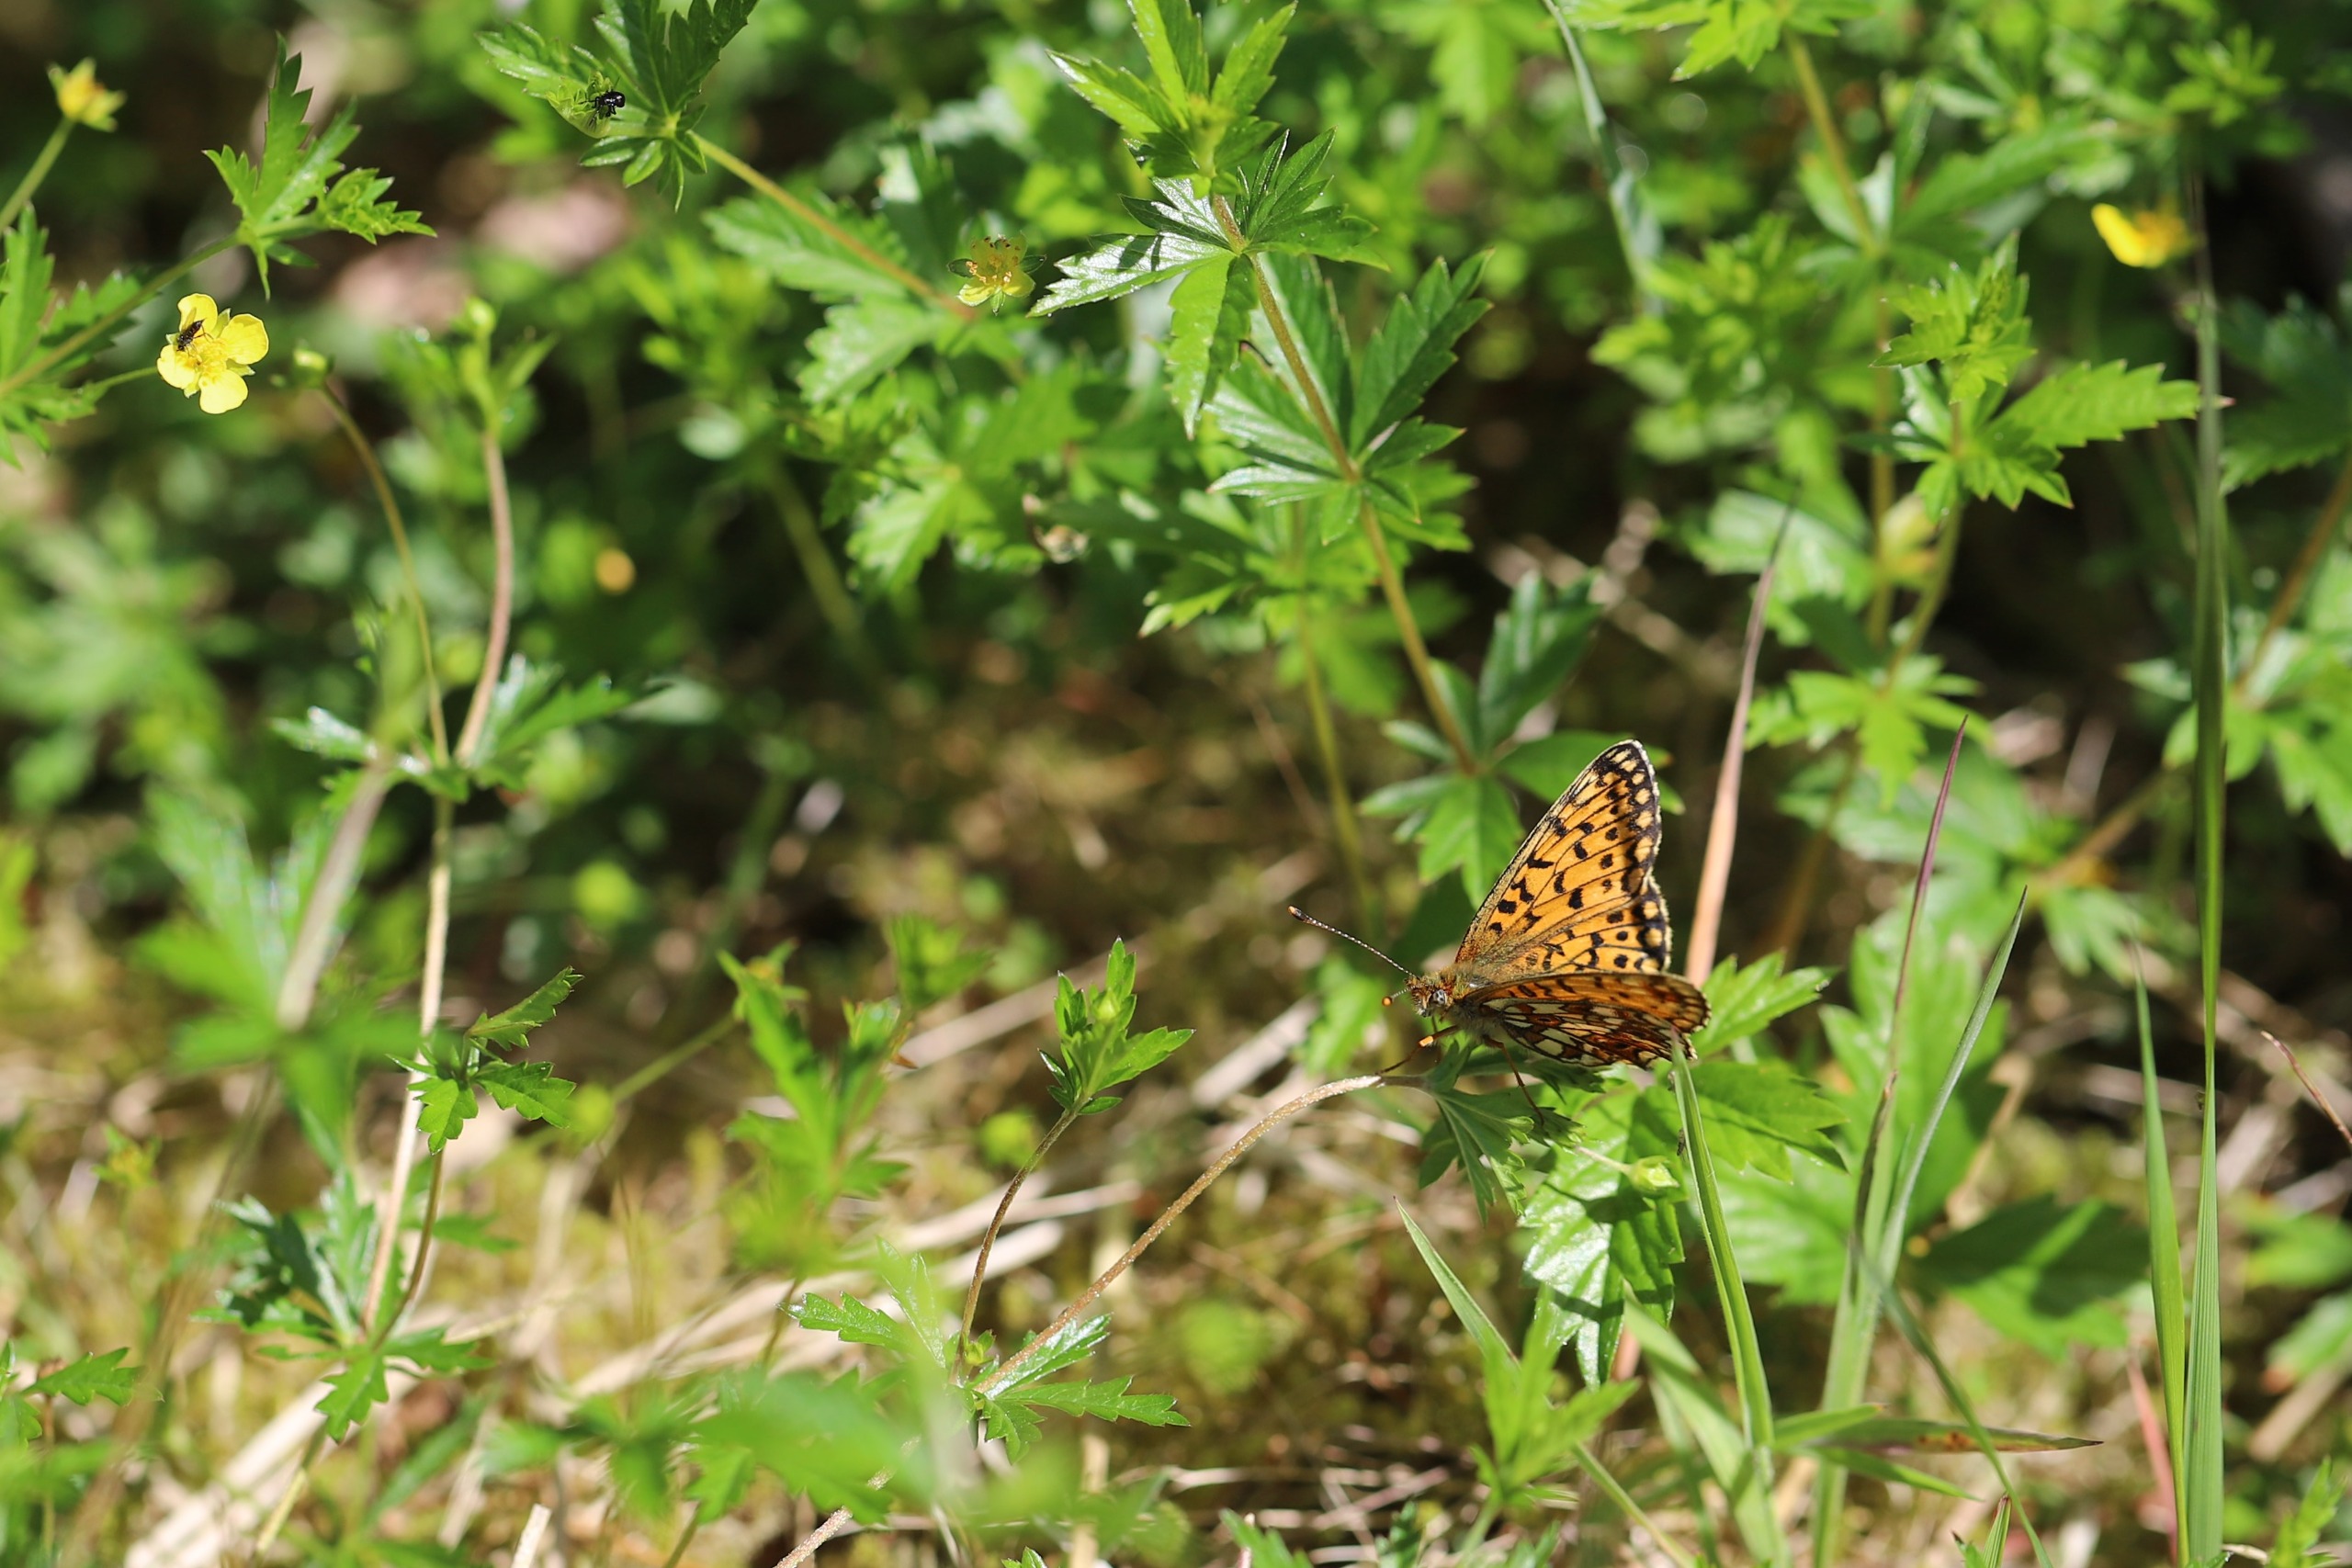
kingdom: Animalia
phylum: Arthropoda
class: Insecta
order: Lepidoptera
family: Nymphalidae
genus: Boloria
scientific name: Boloria selene
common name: Brunlig perlemorsommerfugl
